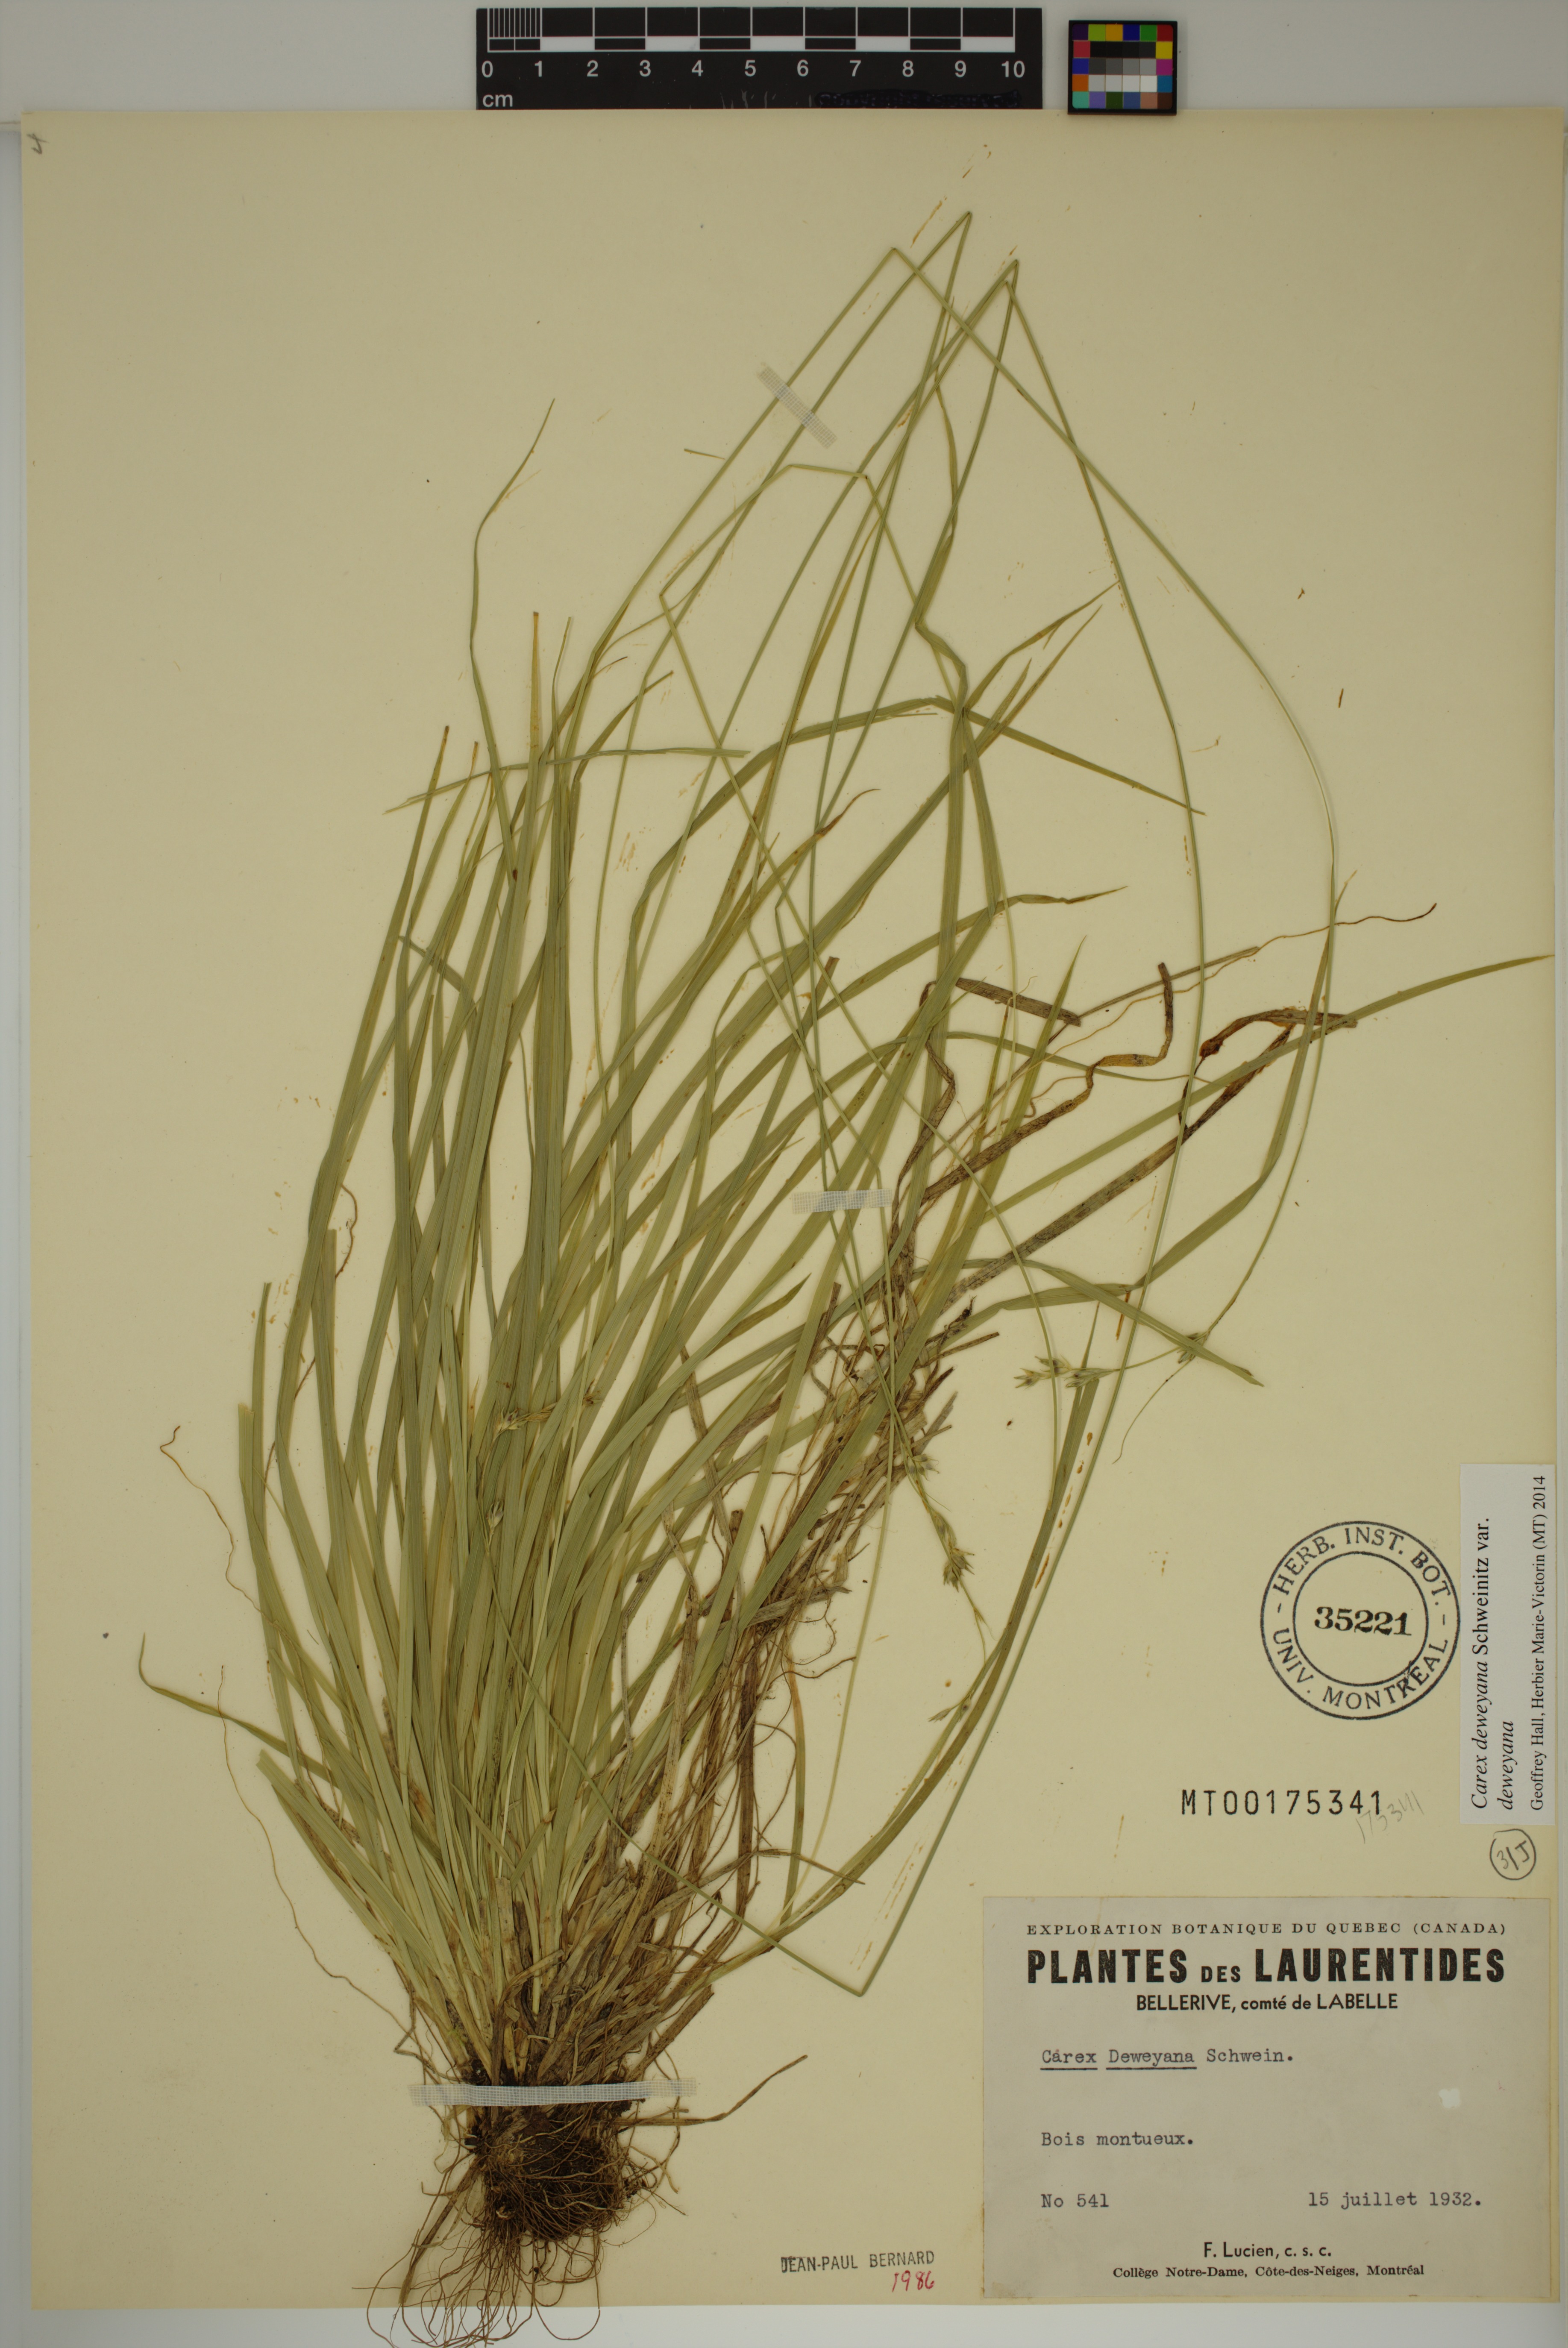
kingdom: Plantae
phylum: Tracheophyta
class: Liliopsida
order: Poales
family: Cyperaceae
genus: Carex
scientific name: Carex deweyana
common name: Dewey's sedge
